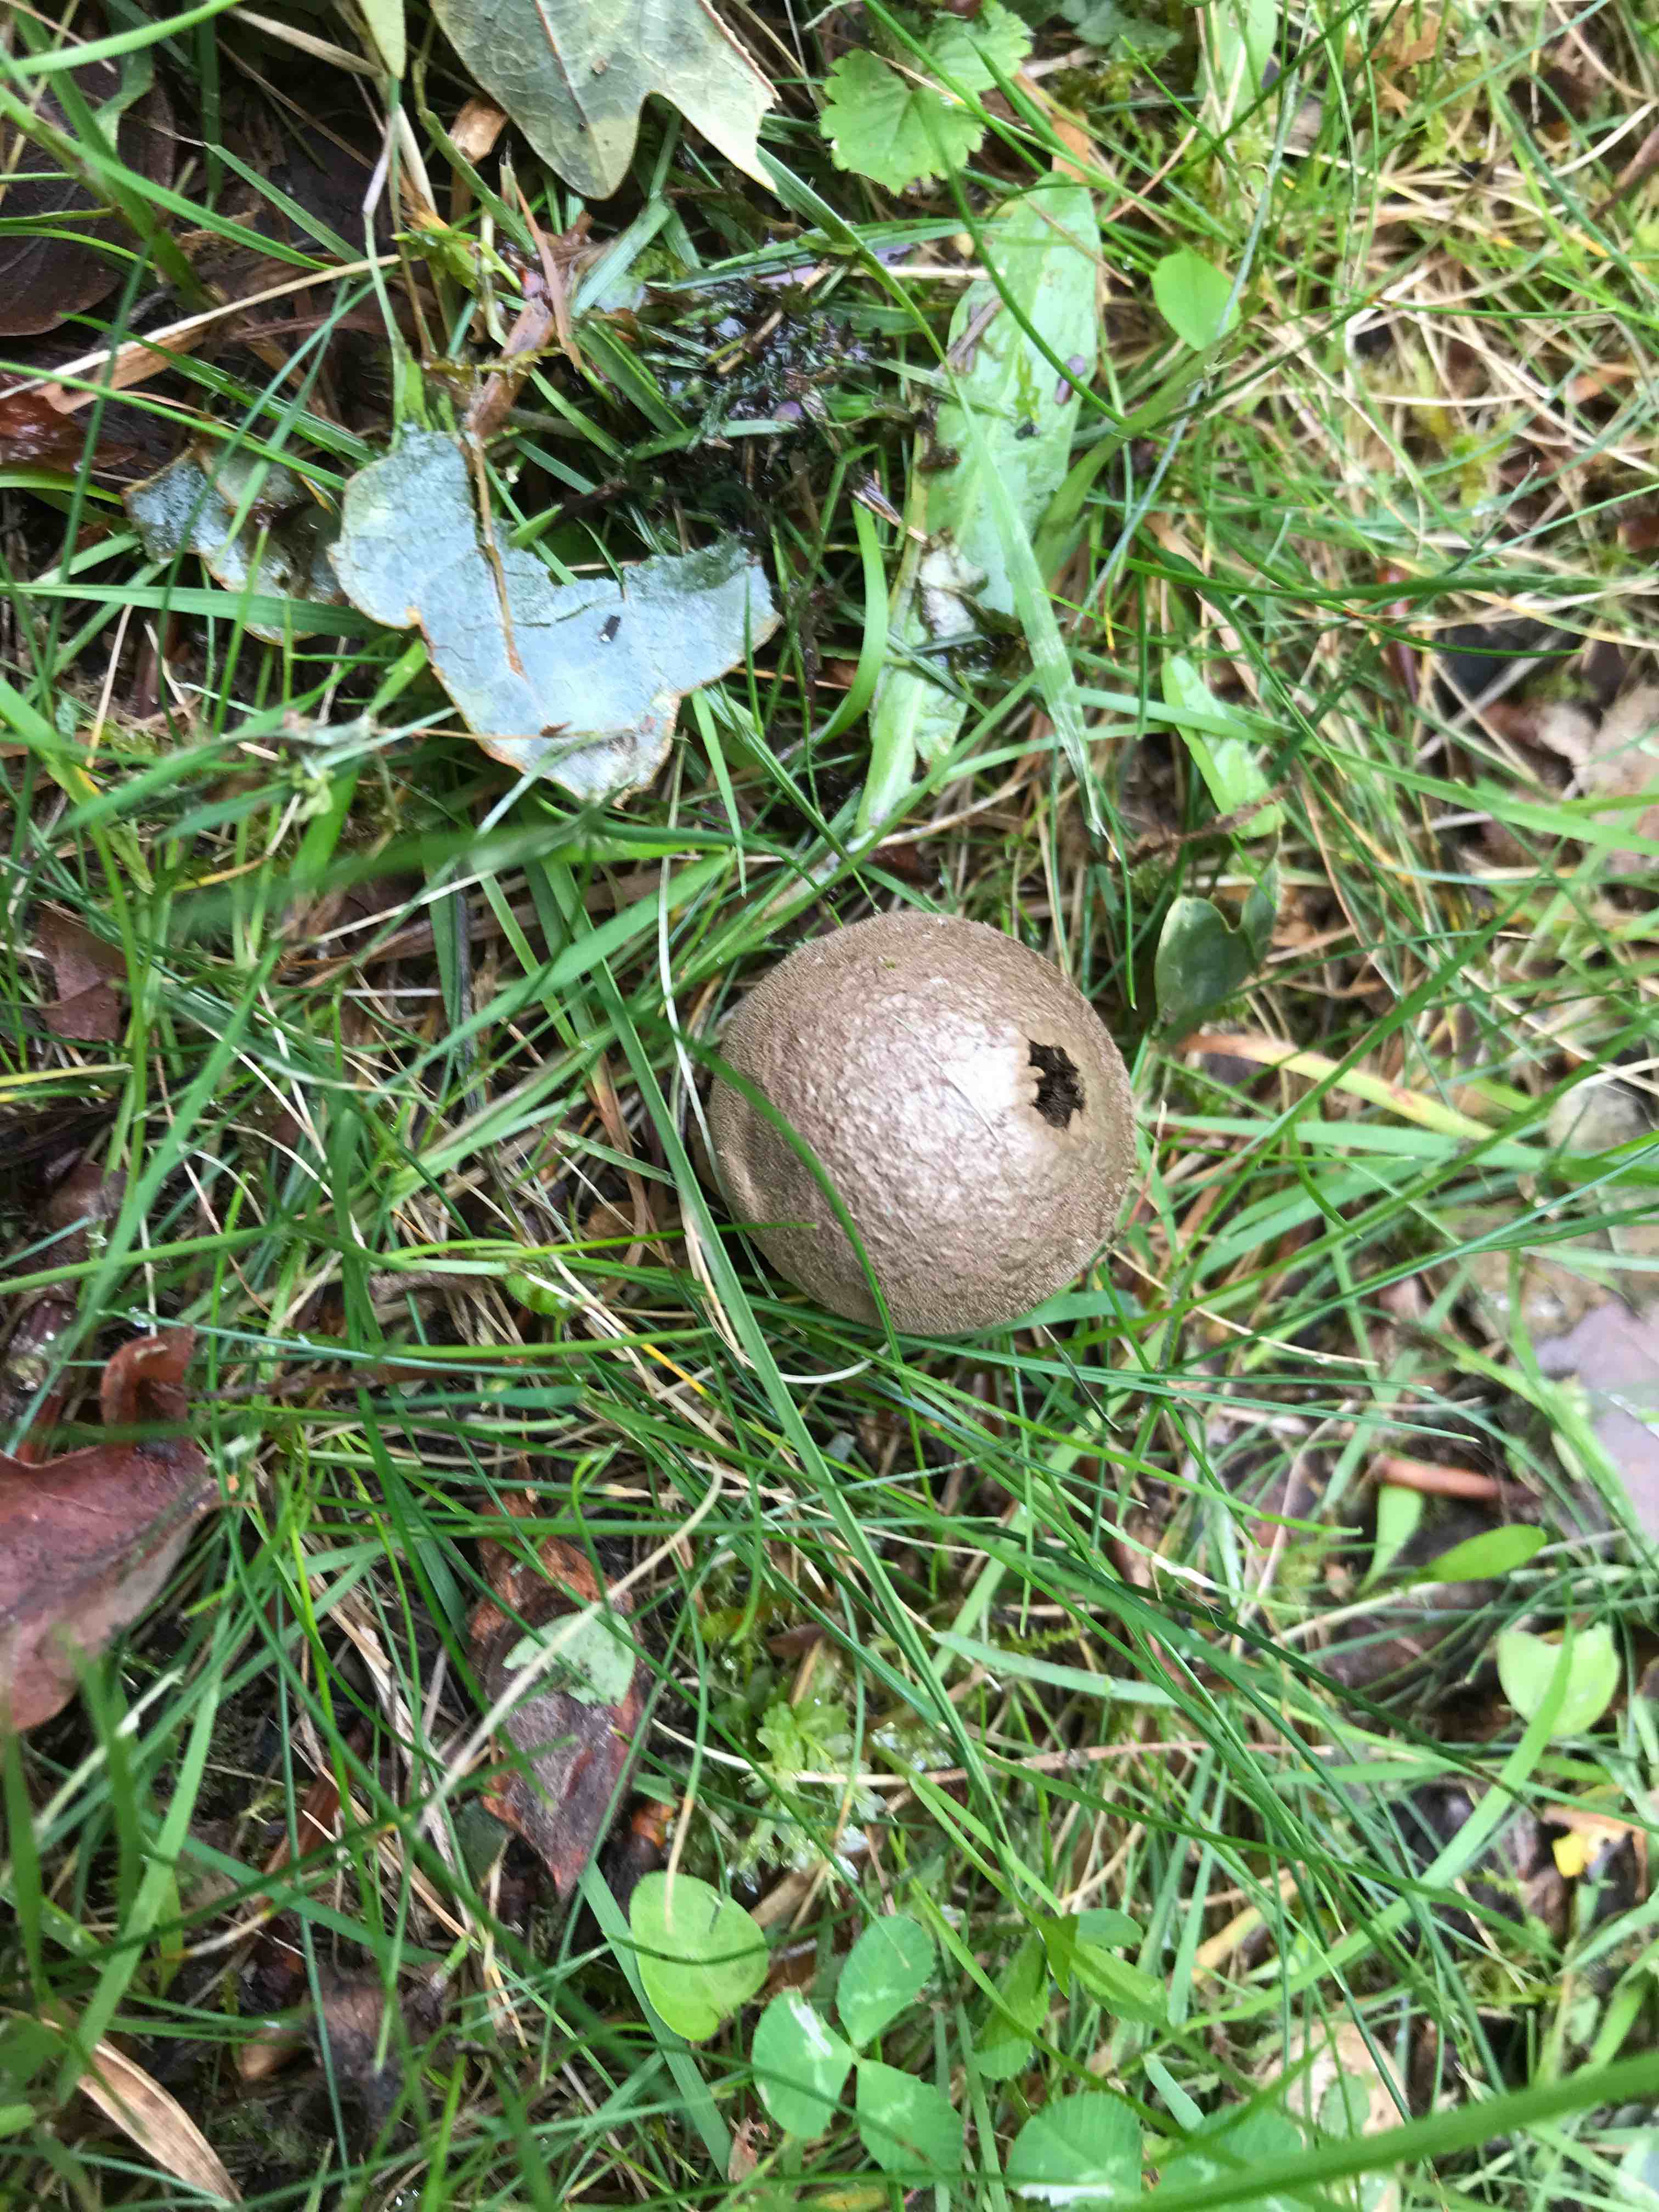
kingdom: Fungi
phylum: Basidiomycota
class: Agaricomycetes
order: Agaricales
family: Agaricaceae
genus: Lycoperdon
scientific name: Lycoperdon
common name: støvbold
